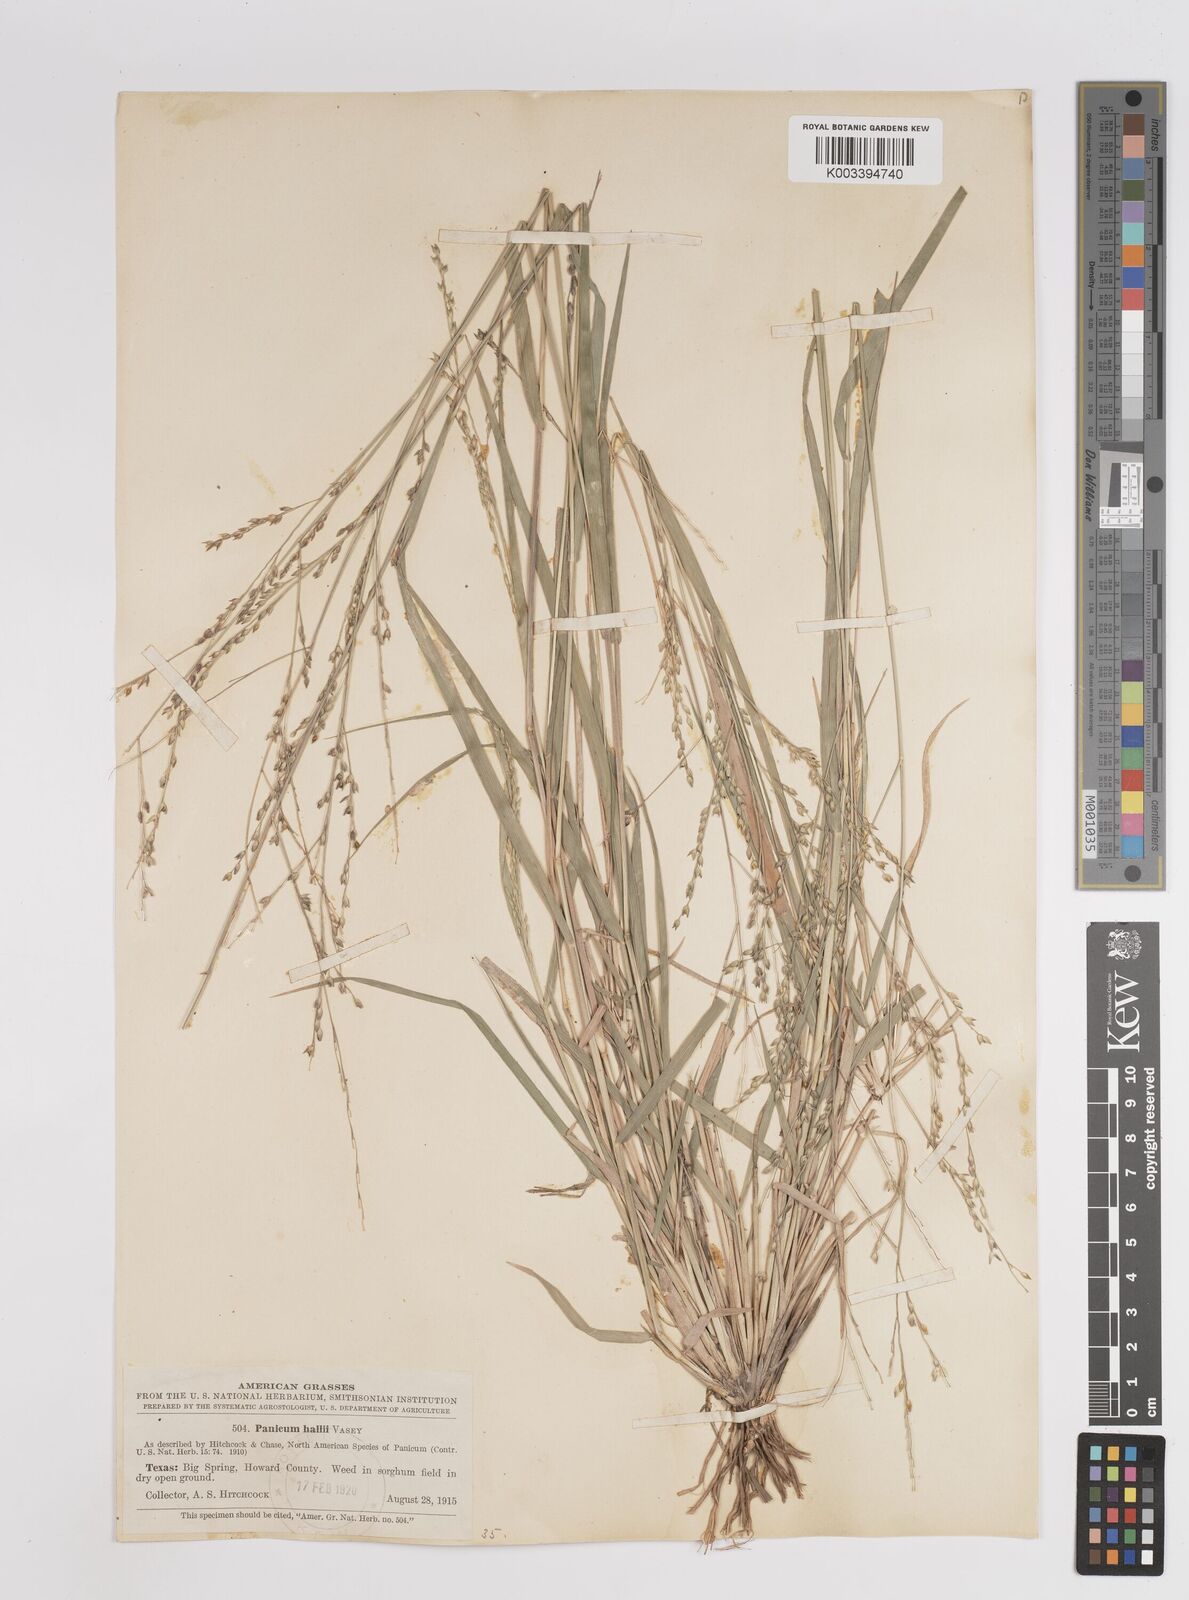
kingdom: Plantae
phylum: Tracheophyta
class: Liliopsida
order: Poales
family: Poaceae
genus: Panicum
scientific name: Panicum hallii
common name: Hall's witchgrass
